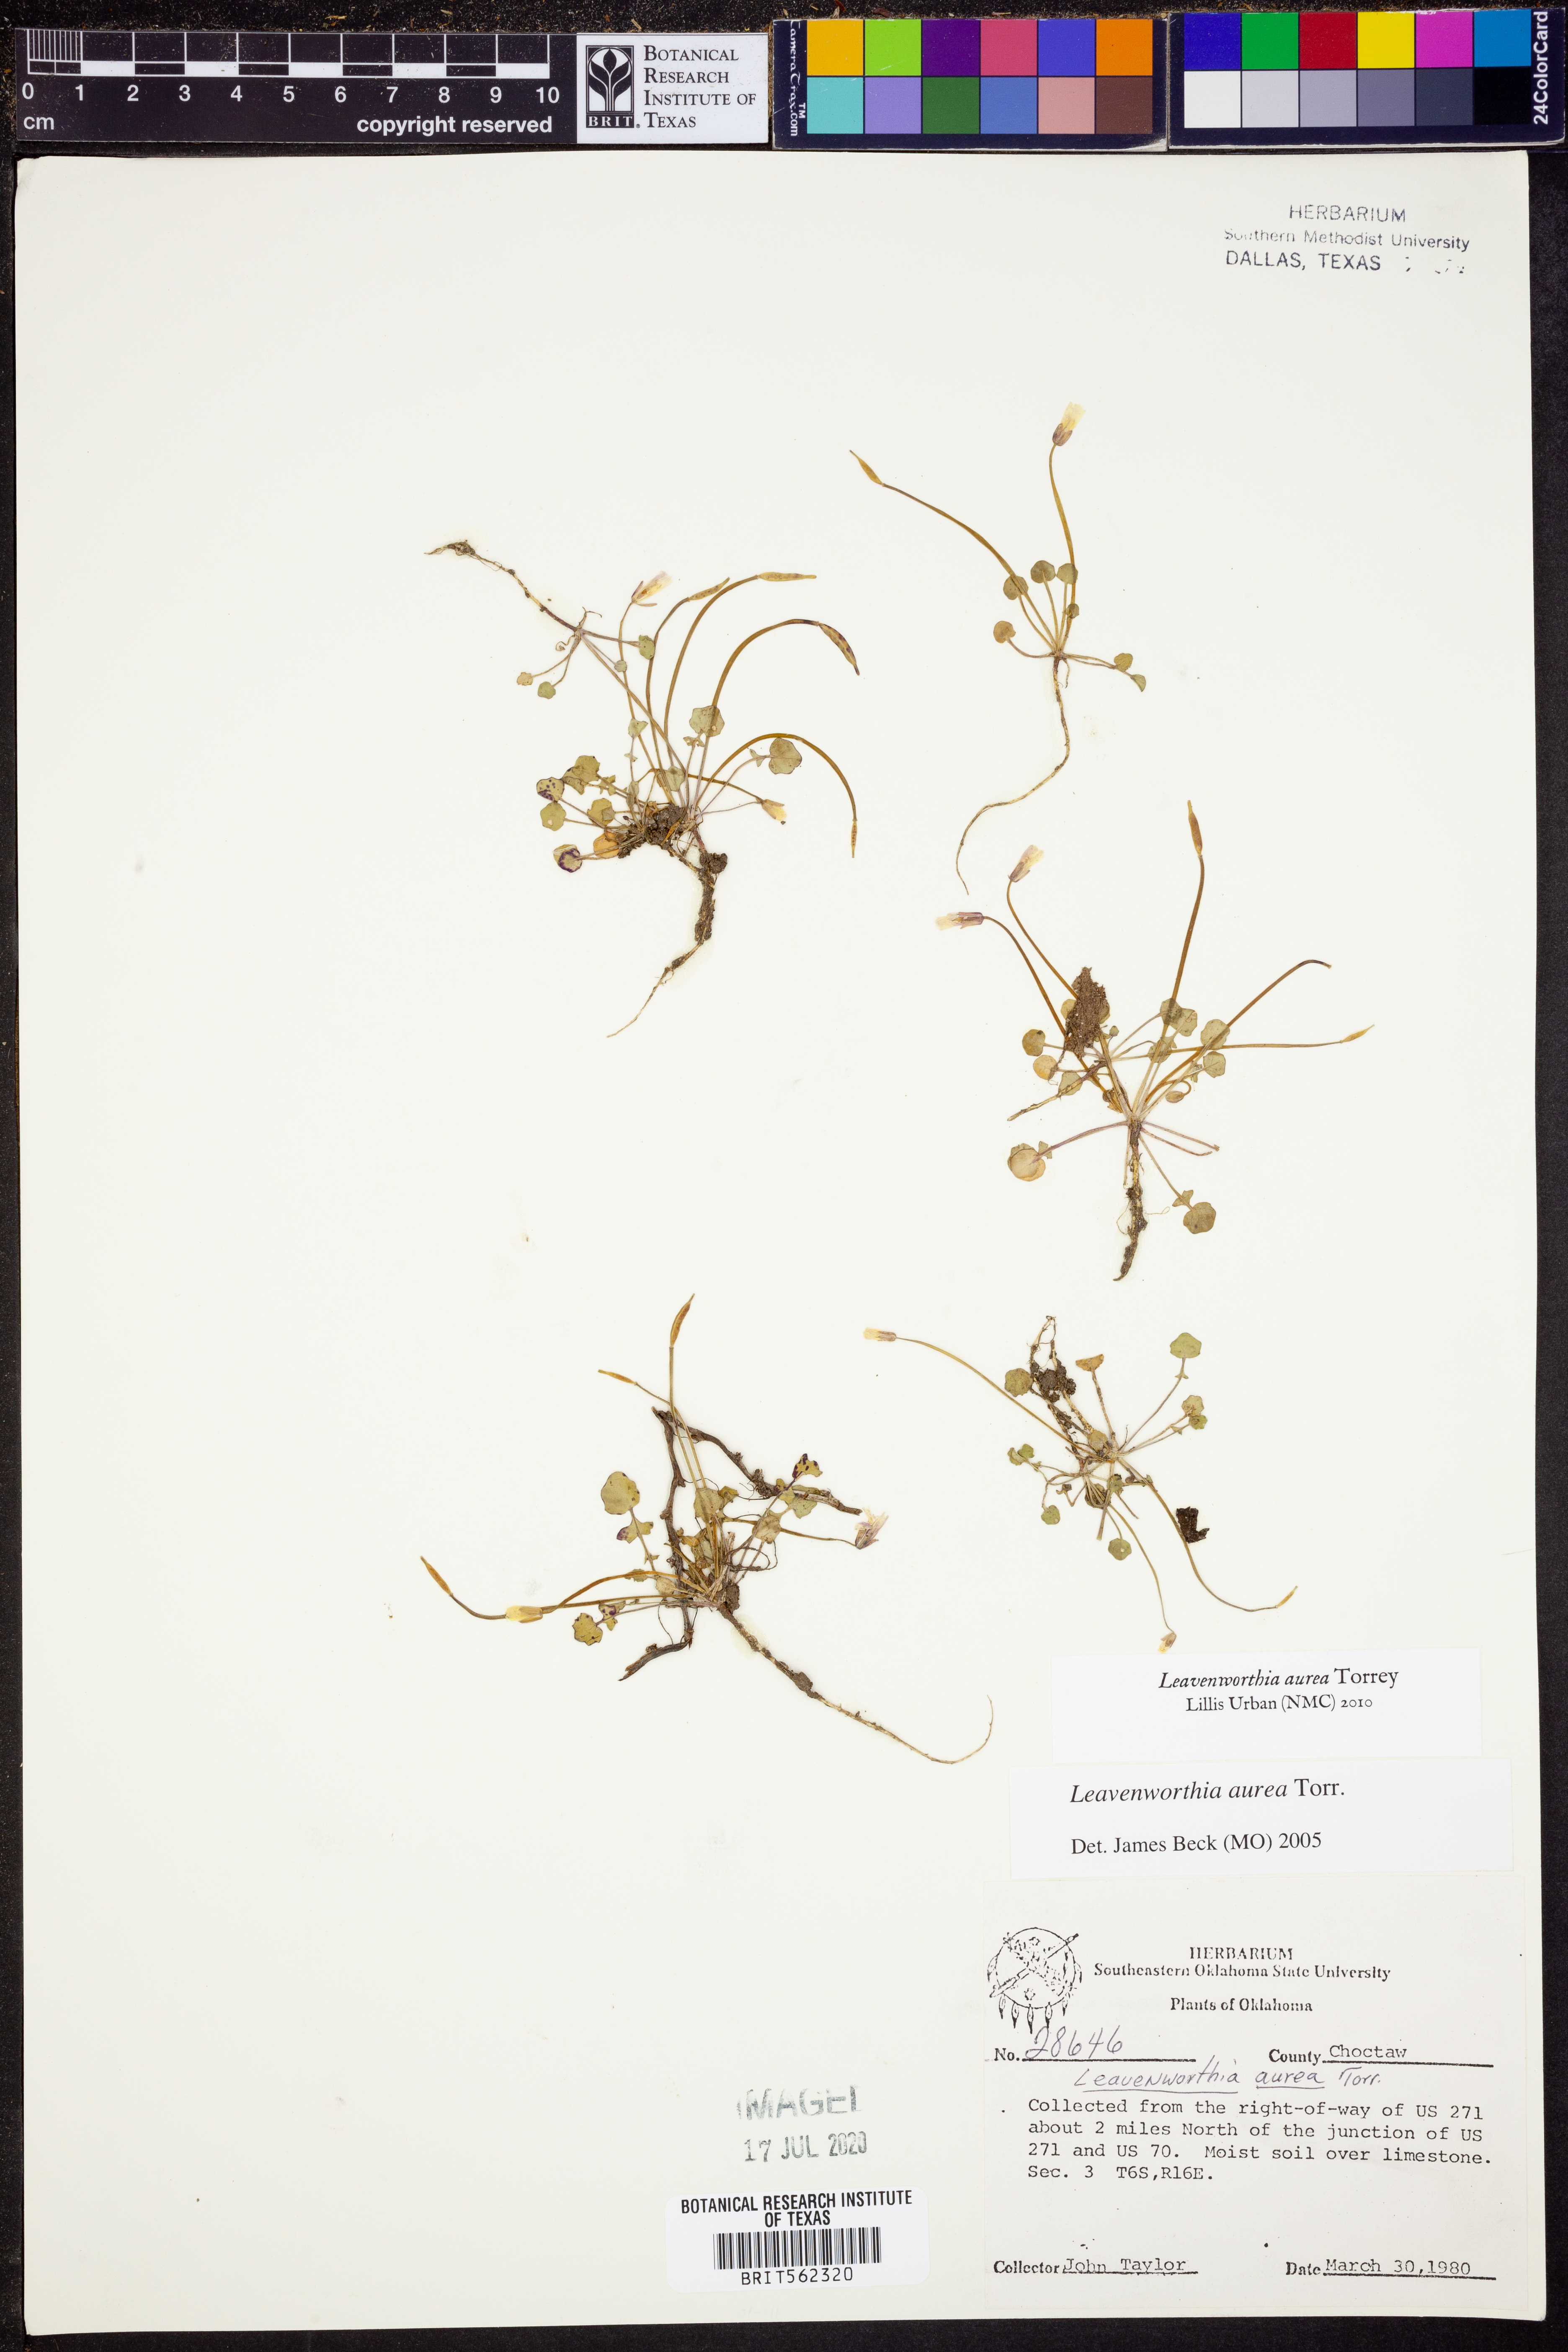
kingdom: Plantae
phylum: Tracheophyta
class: Magnoliopsida
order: Brassicales
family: Brassicaceae
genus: Leavenworthia
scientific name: Leavenworthia aurea
